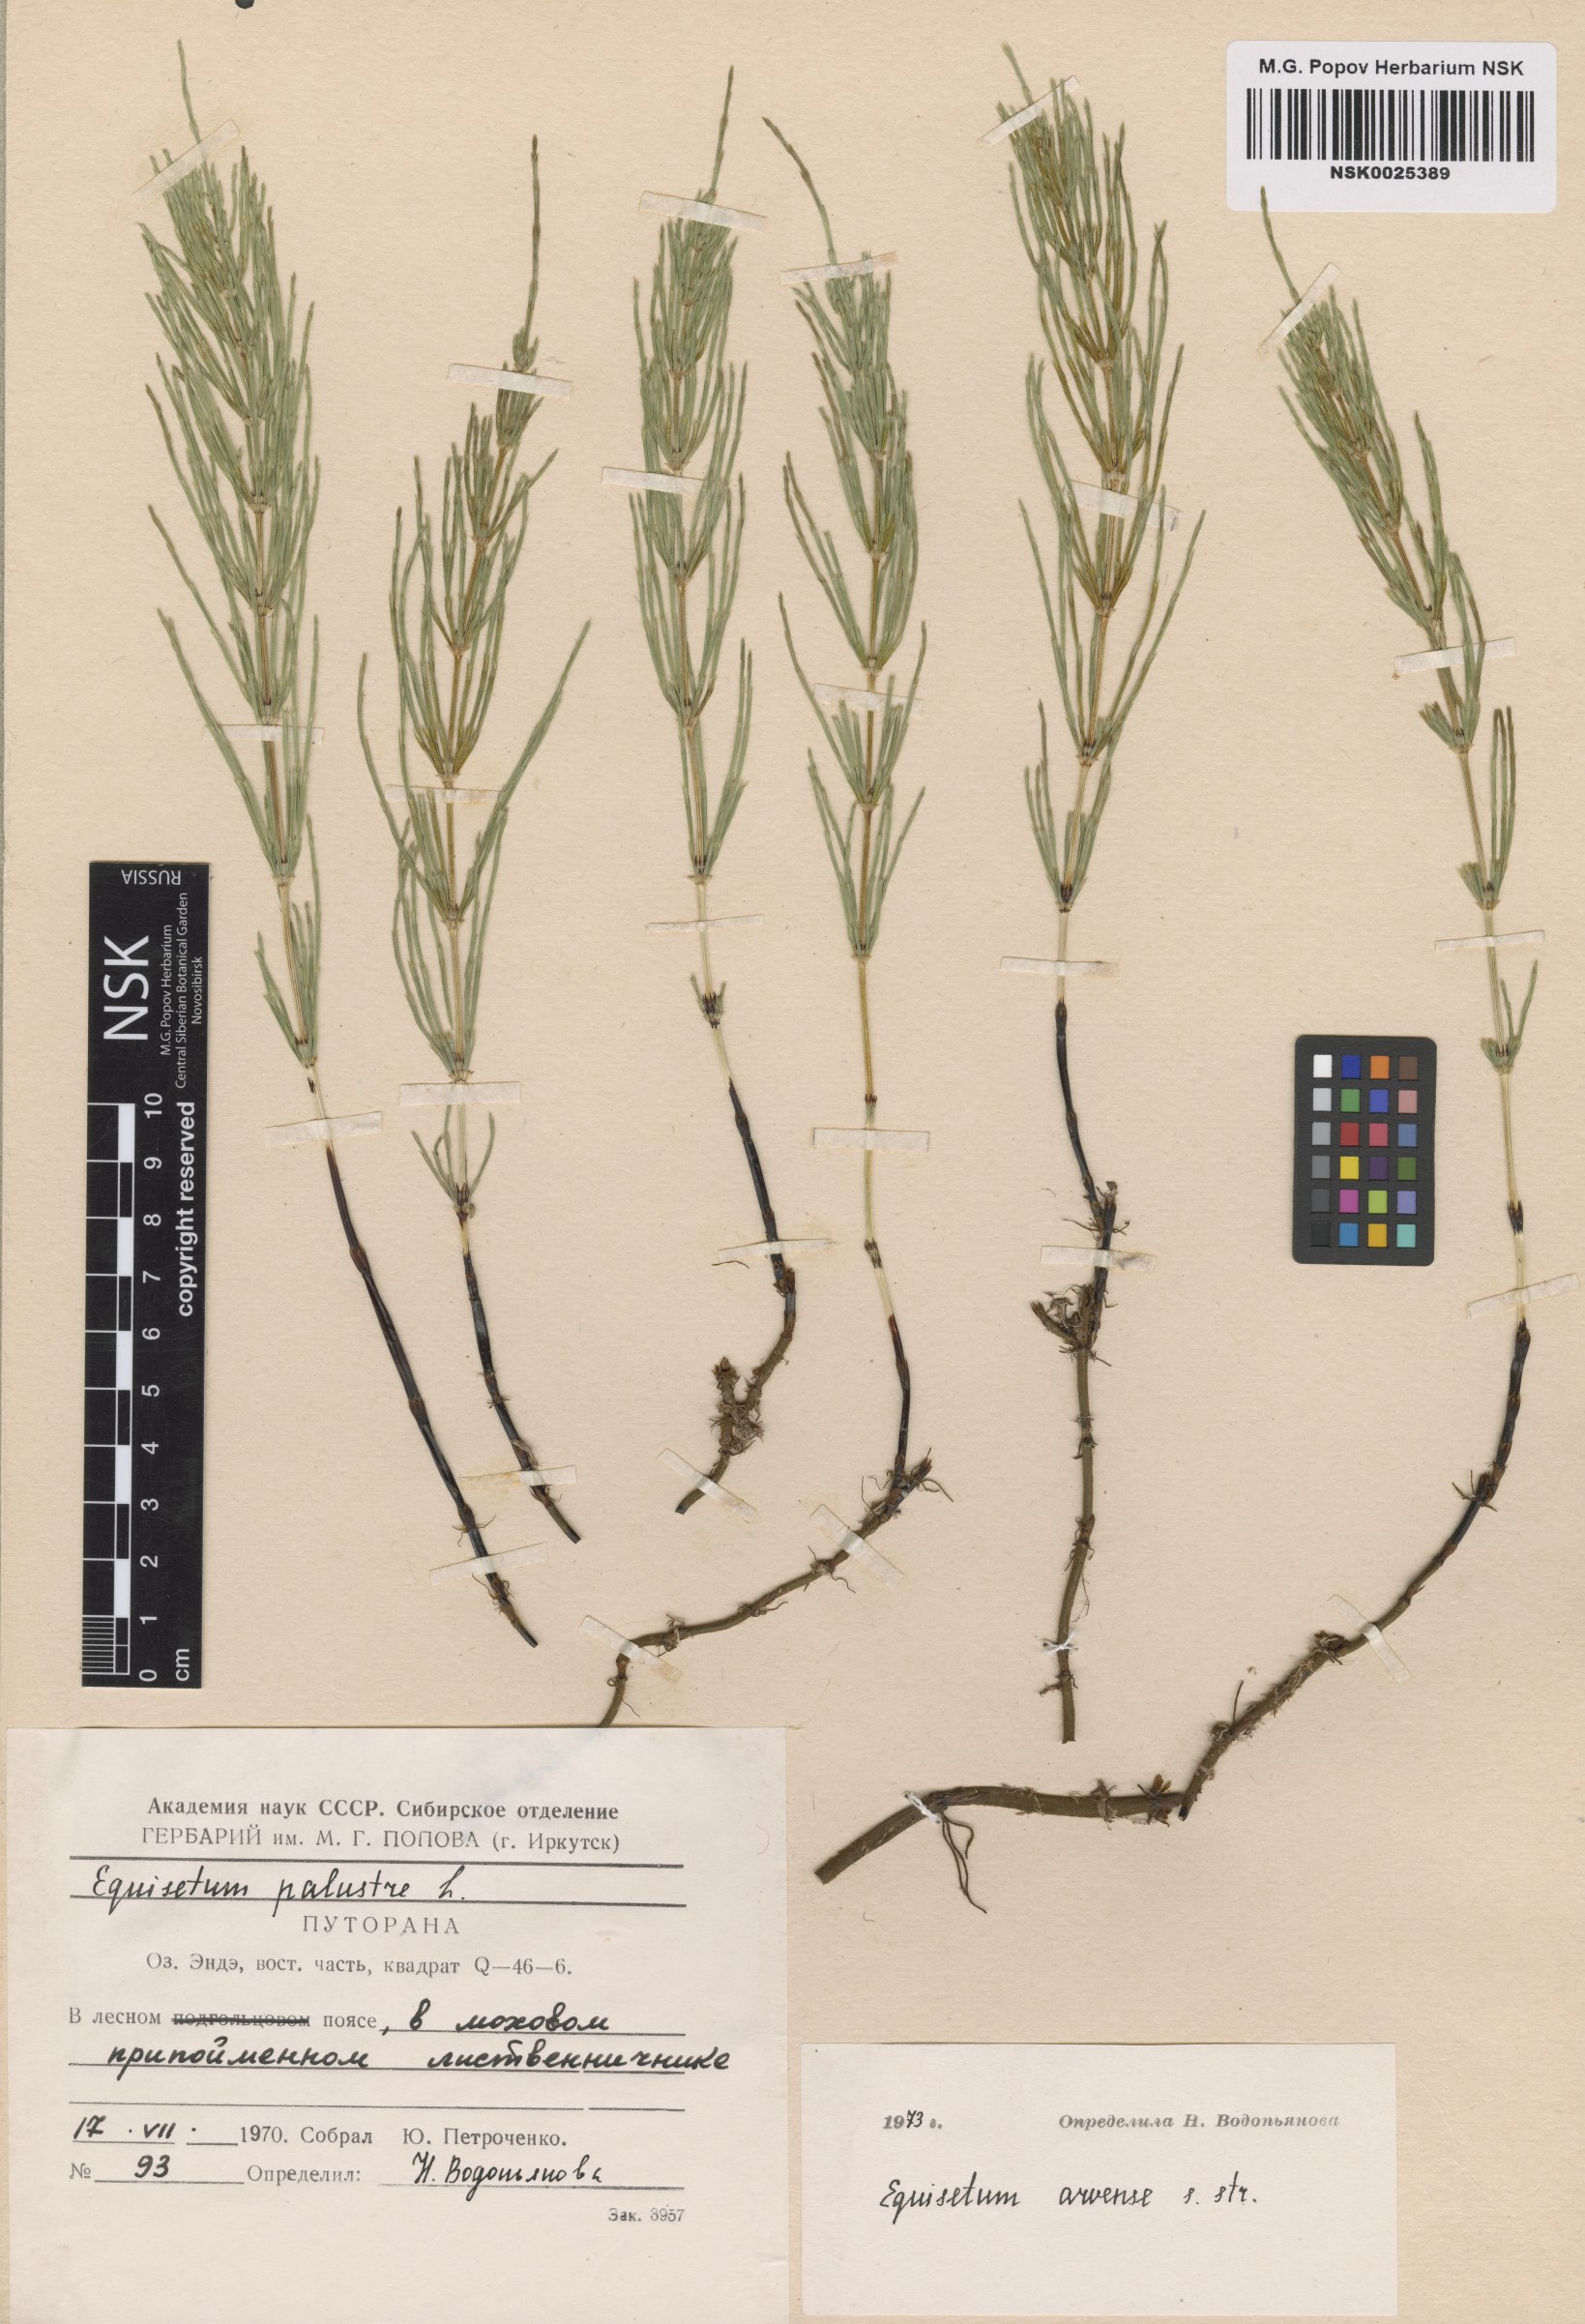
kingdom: Plantae
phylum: Tracheophyta
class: Polypodiopsida
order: Equisetales
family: Equisetaceae
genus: Equisetum
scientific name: Equisetum arvense
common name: Field horsetail
